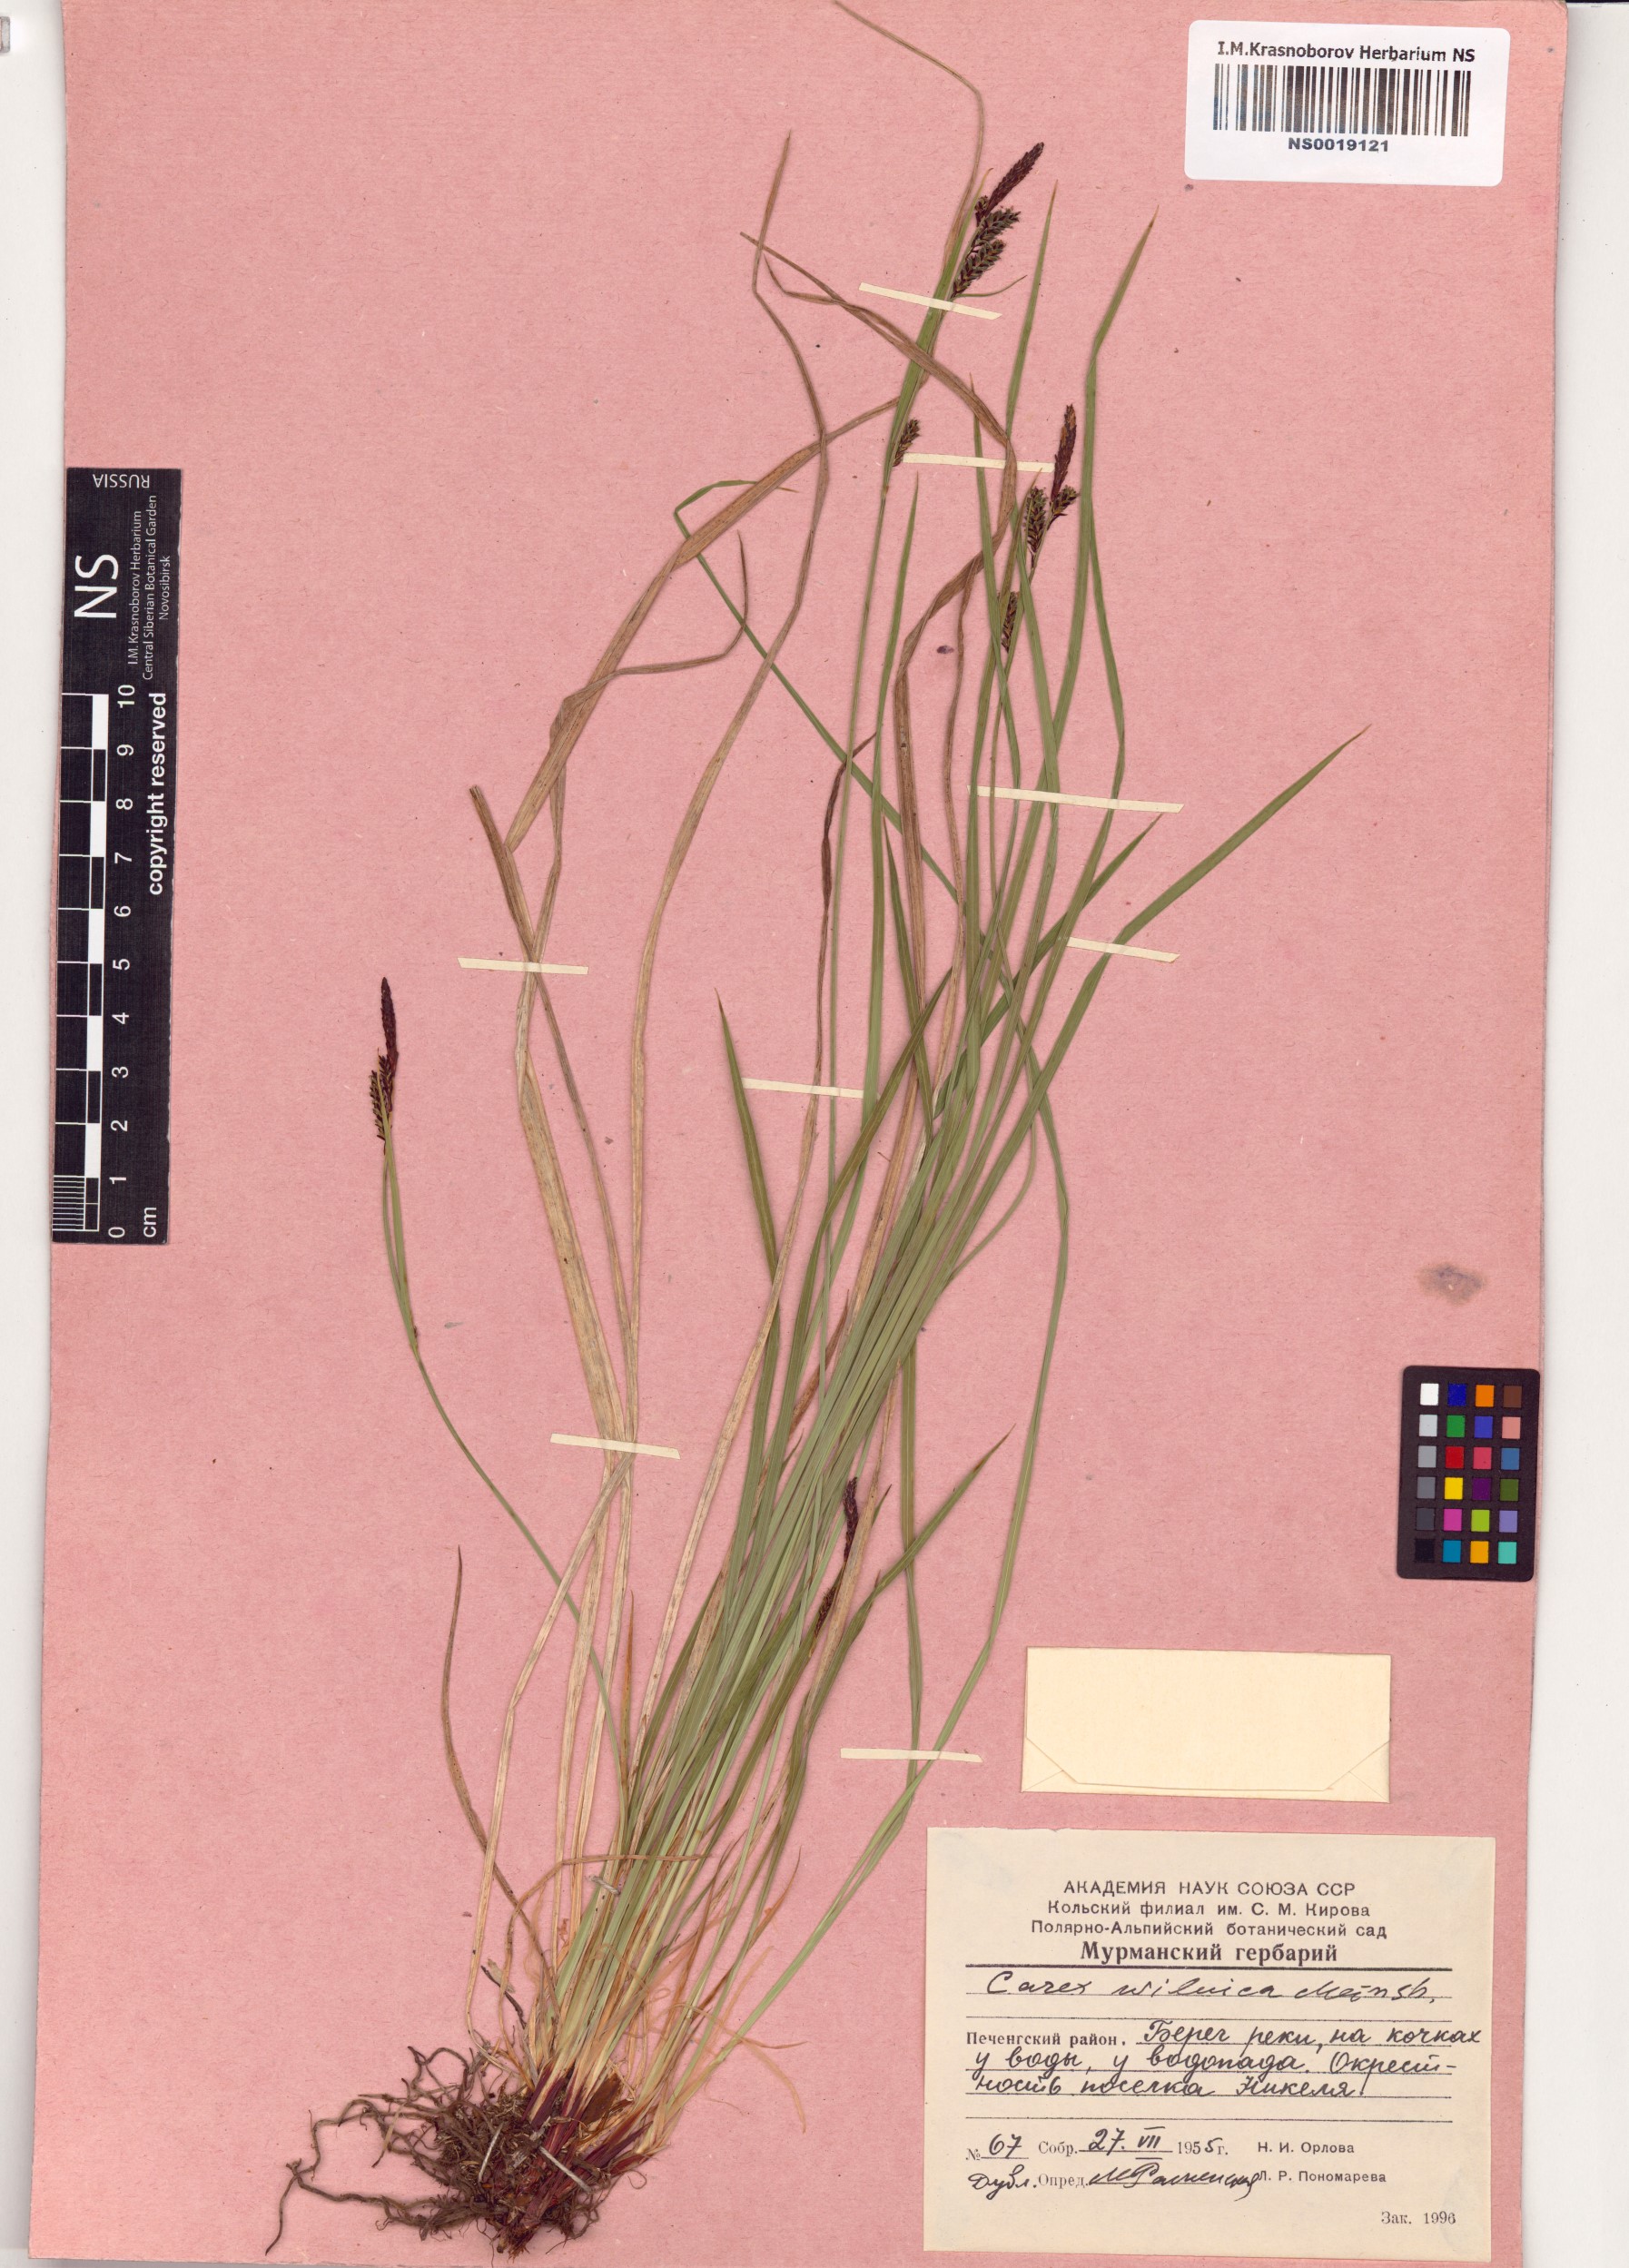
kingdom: Plantae
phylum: Tracheophyta
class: Liliopsida
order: Poales
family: Cyperaceae
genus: Carex
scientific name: Carex nigra
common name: Common sedge
